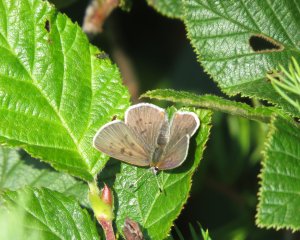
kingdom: Animalia
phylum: Arthropoda
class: Insecta
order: Lepidoptera
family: Sesiidae
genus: Sesia
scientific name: Sesia Lycaena epixanthe
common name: Bog Copper
